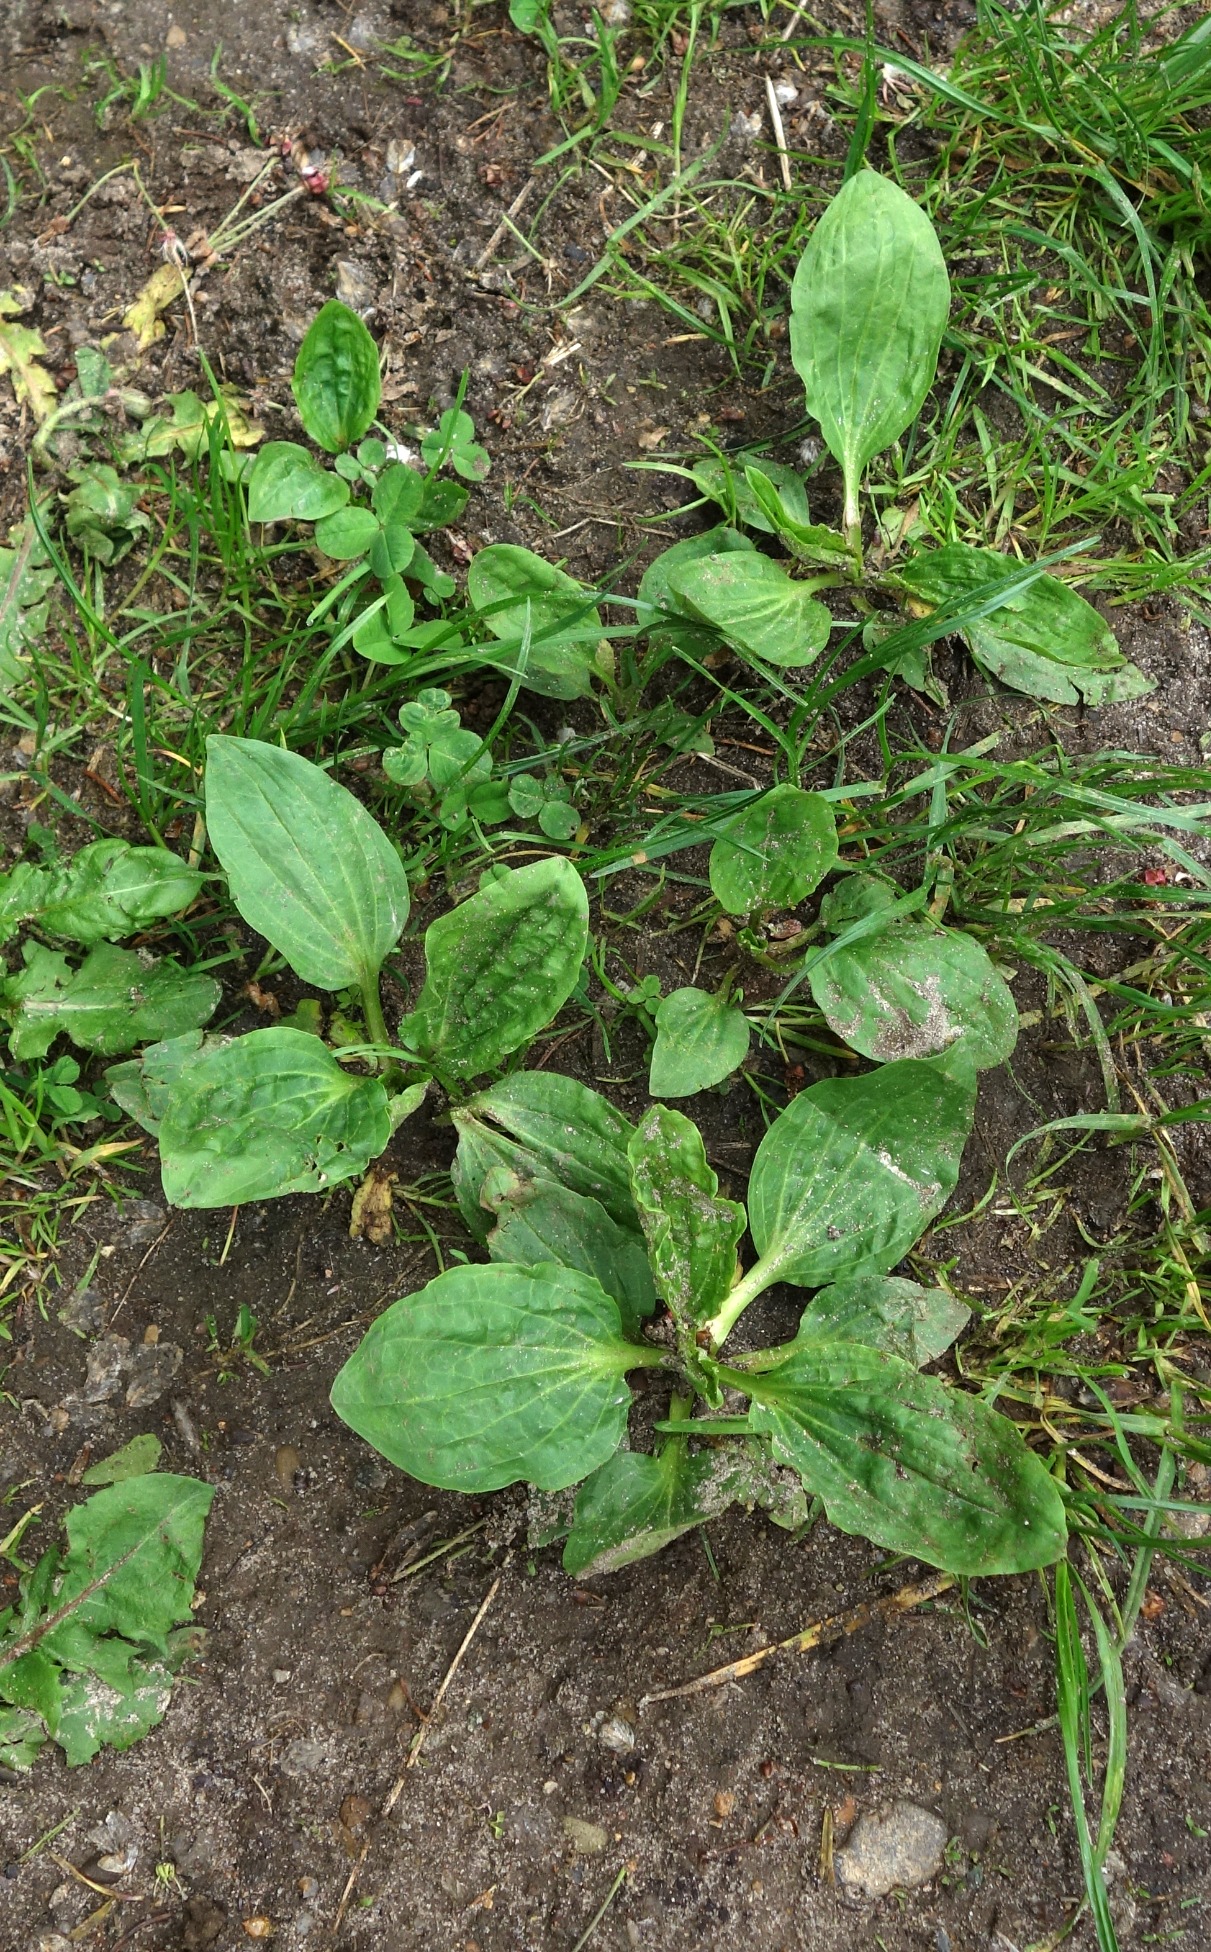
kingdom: Plantae
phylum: Tracheophyta
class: Magnoliopsida
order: Lamiales
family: Plantaginaceae
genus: Plantago
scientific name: Plantago major
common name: Glat vejbred
